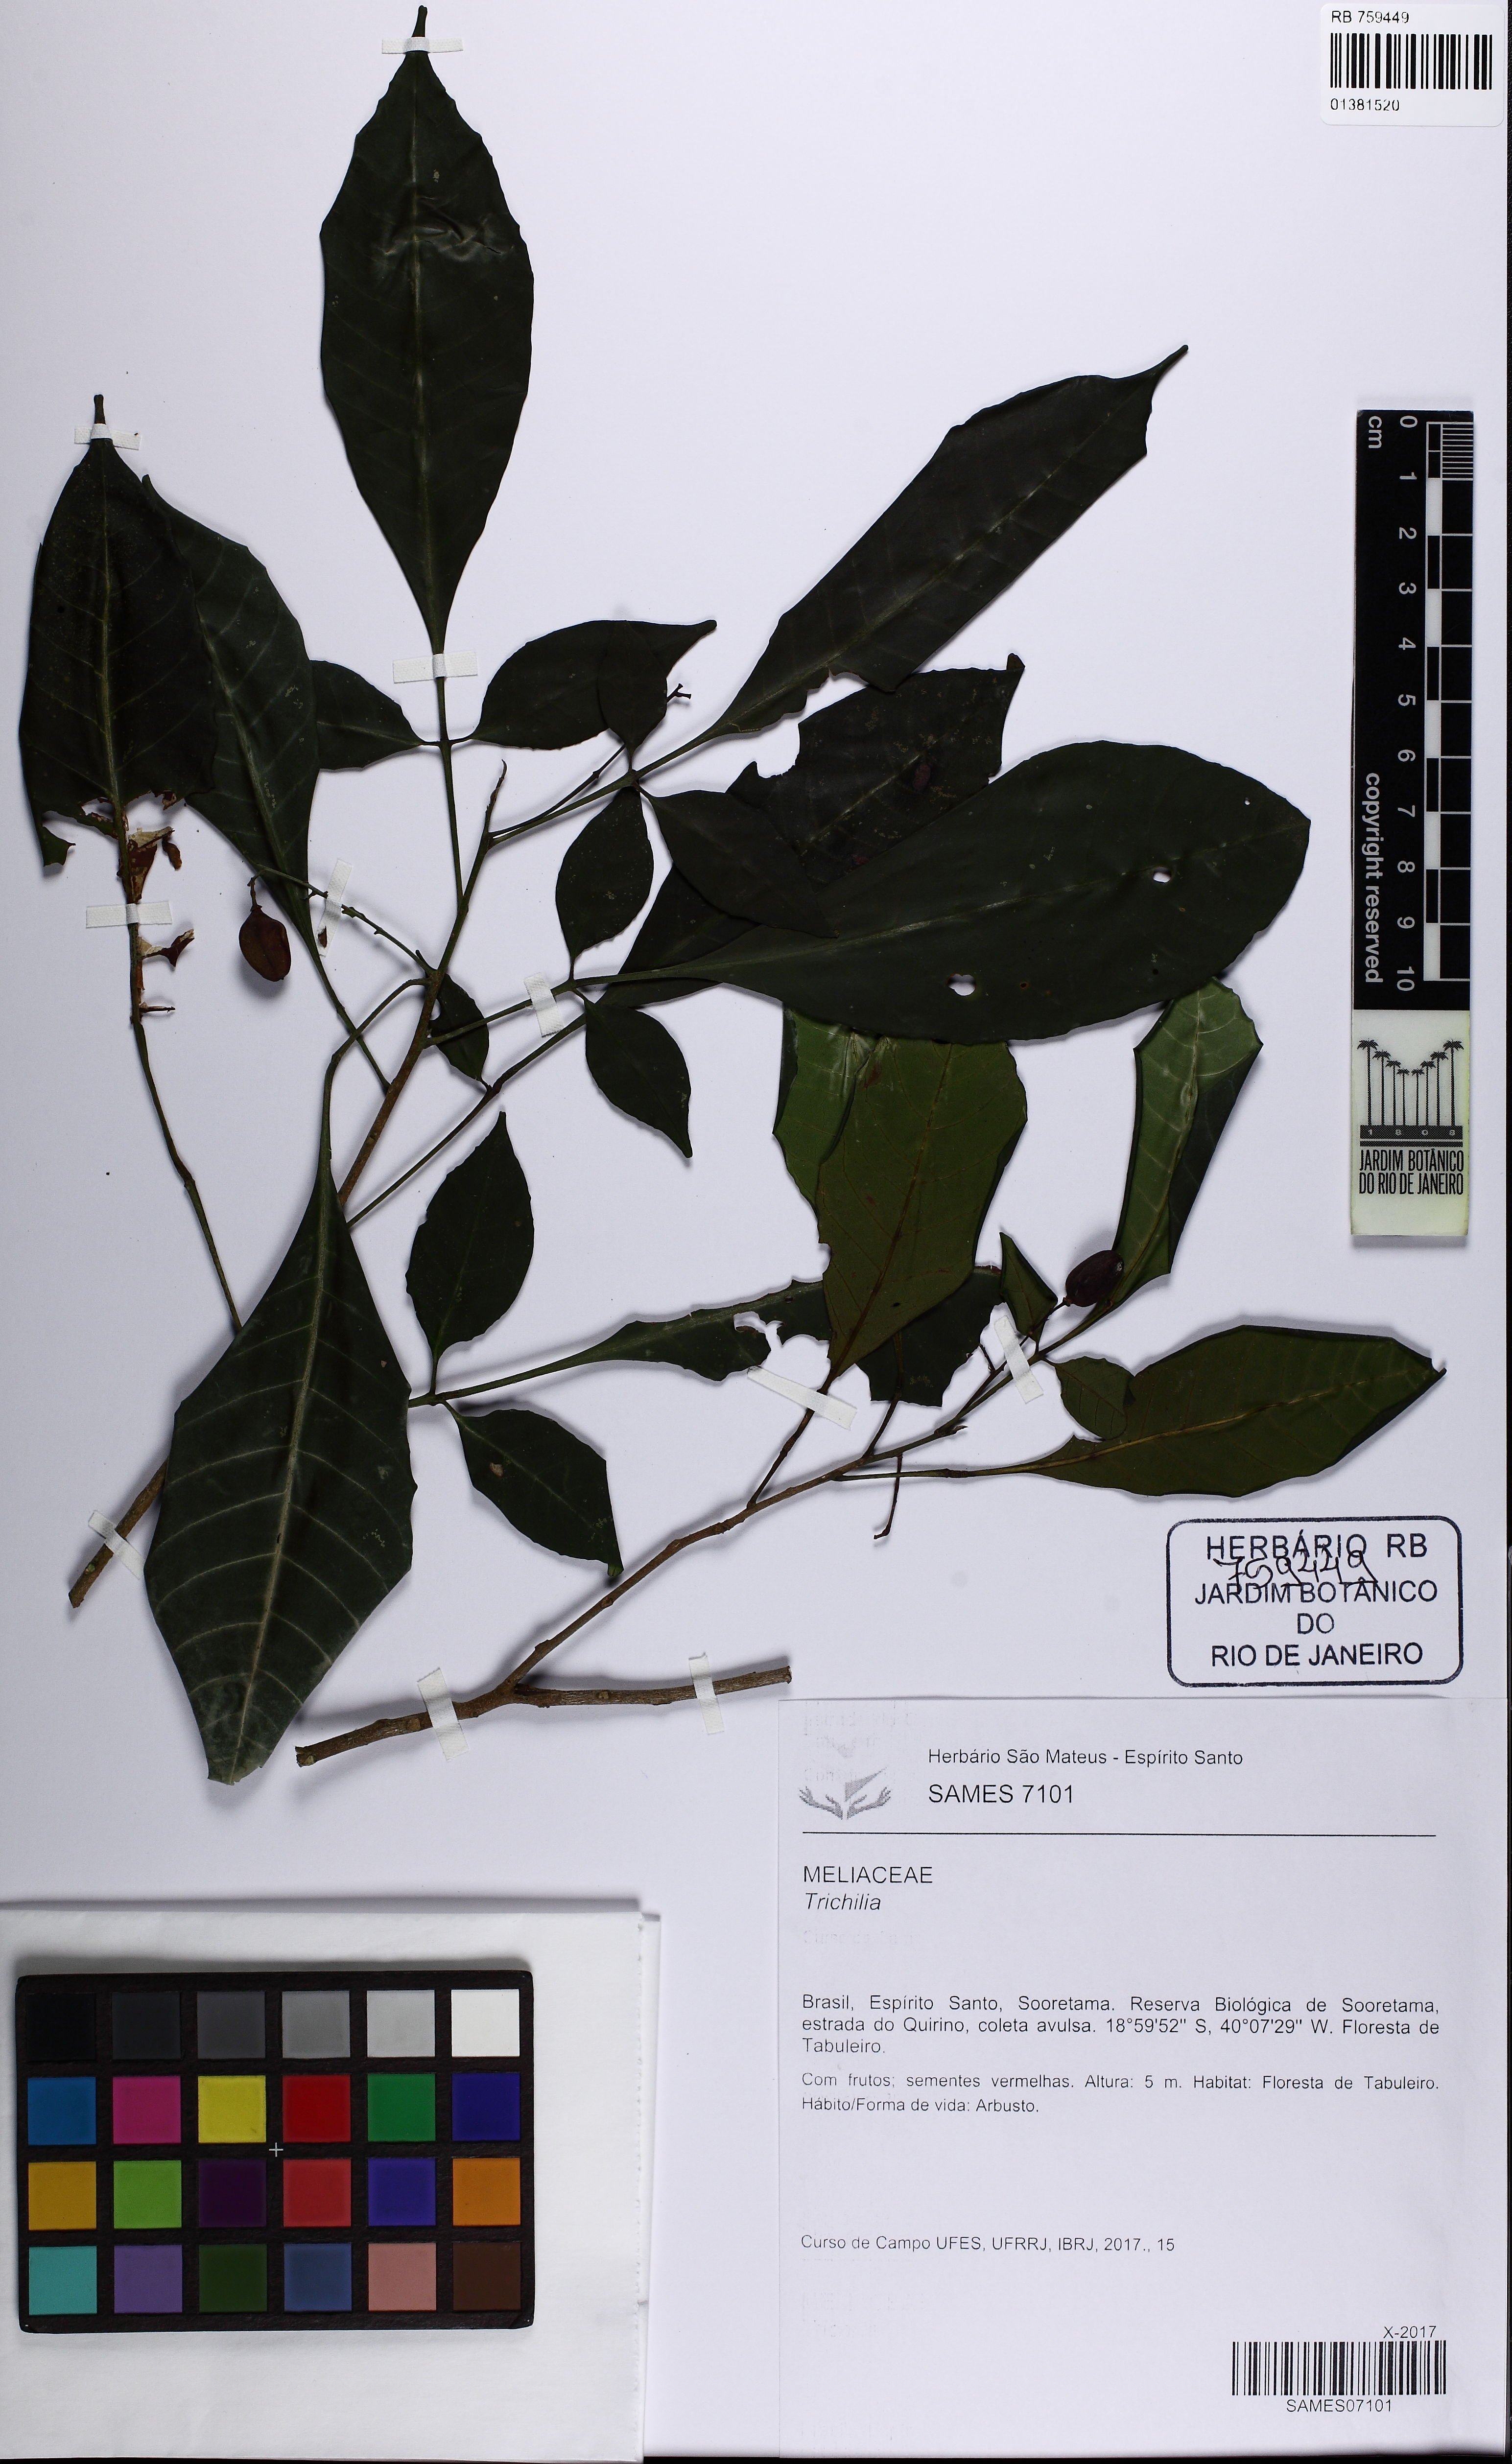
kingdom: Plantae
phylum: Tracheophyta
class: Magnoliopsida
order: Sapindales
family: Meliaceae
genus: Trichilia
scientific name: Trichilia pallens
